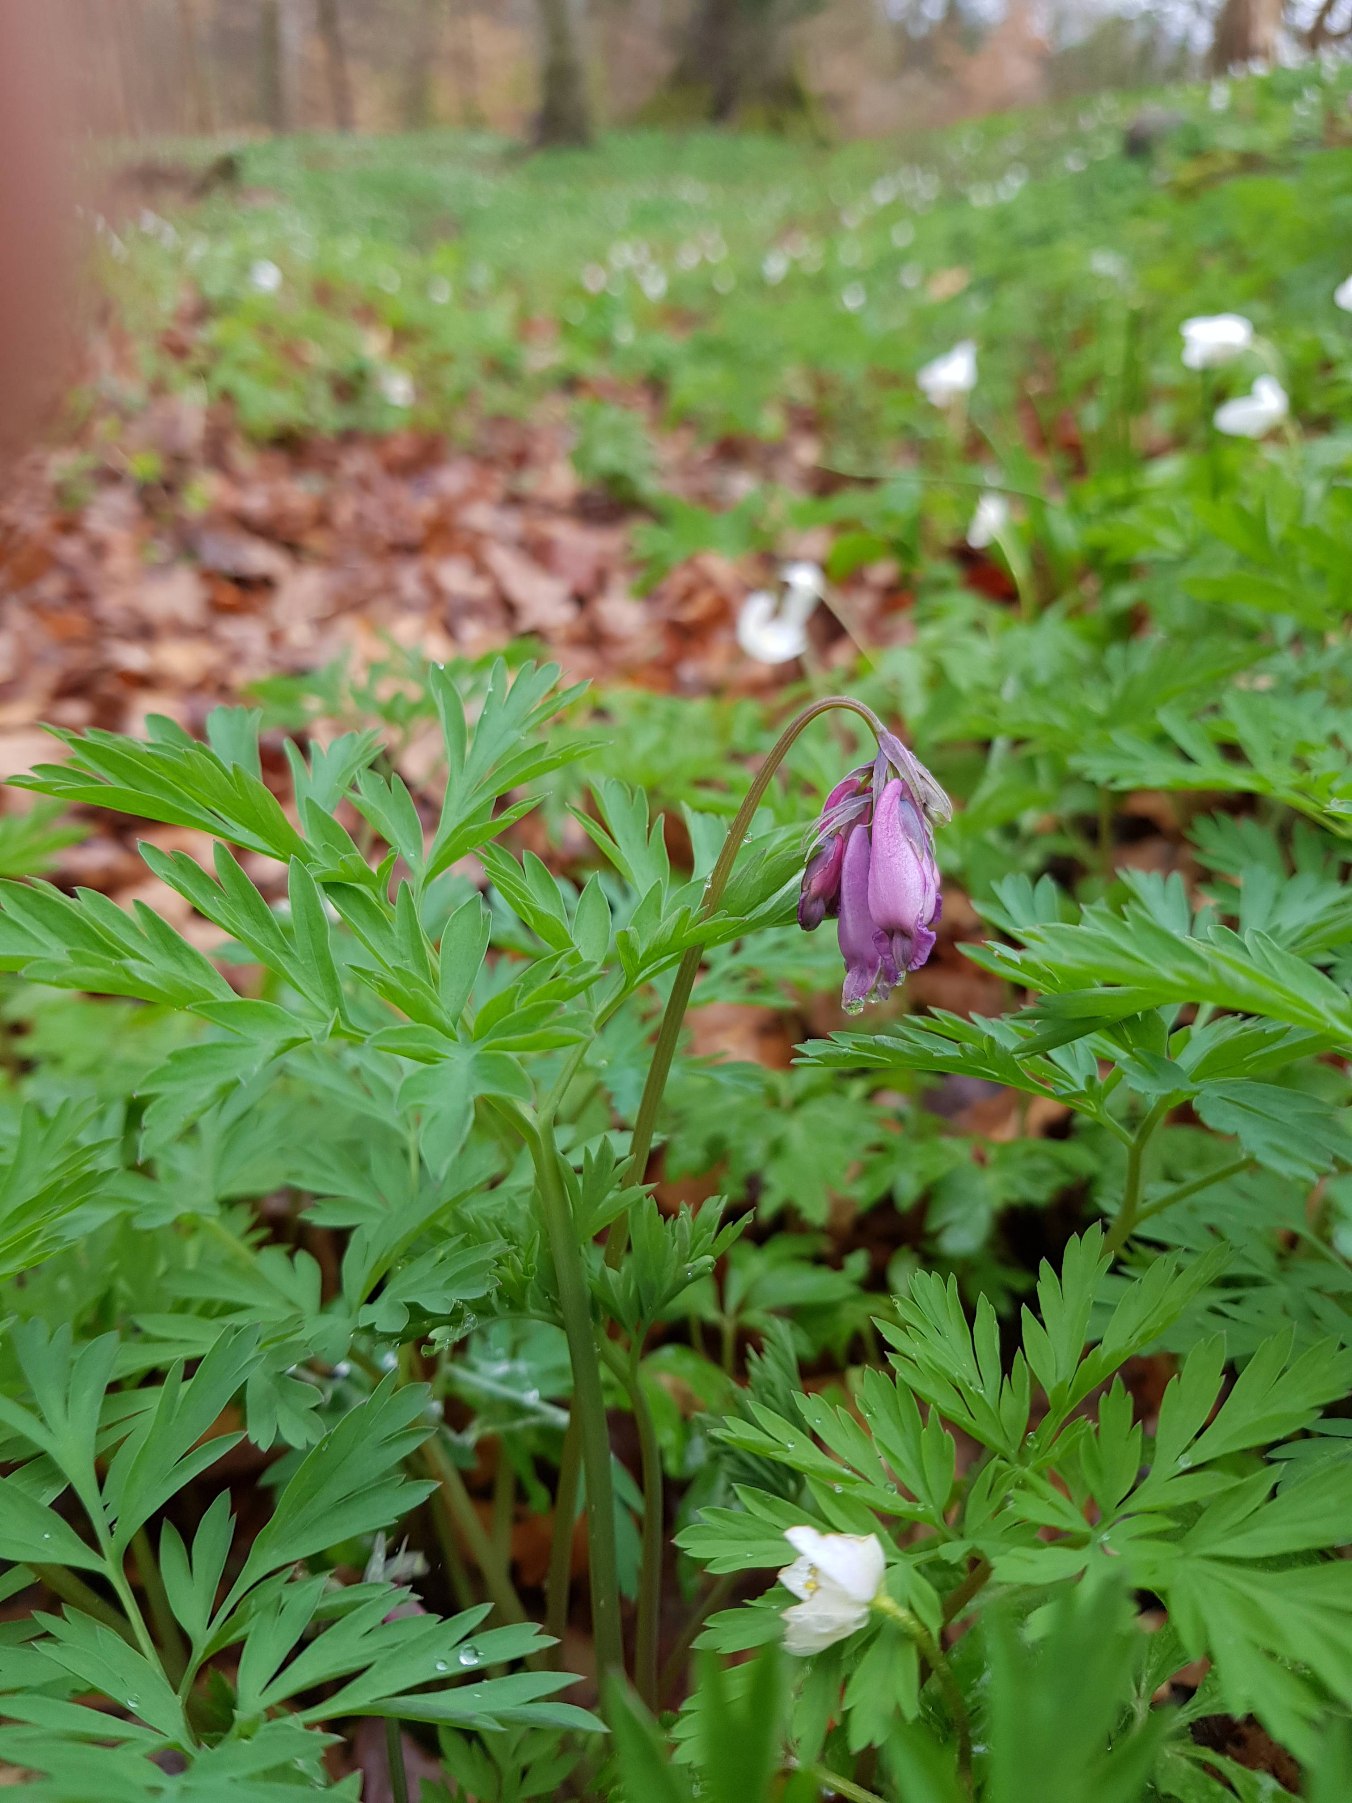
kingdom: Plantae
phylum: Tracheophyta
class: Magnoliopsida
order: Ranunculales
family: Papaveraceae
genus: Dicentra
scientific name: Dicentra formosa
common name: Småhjerte
